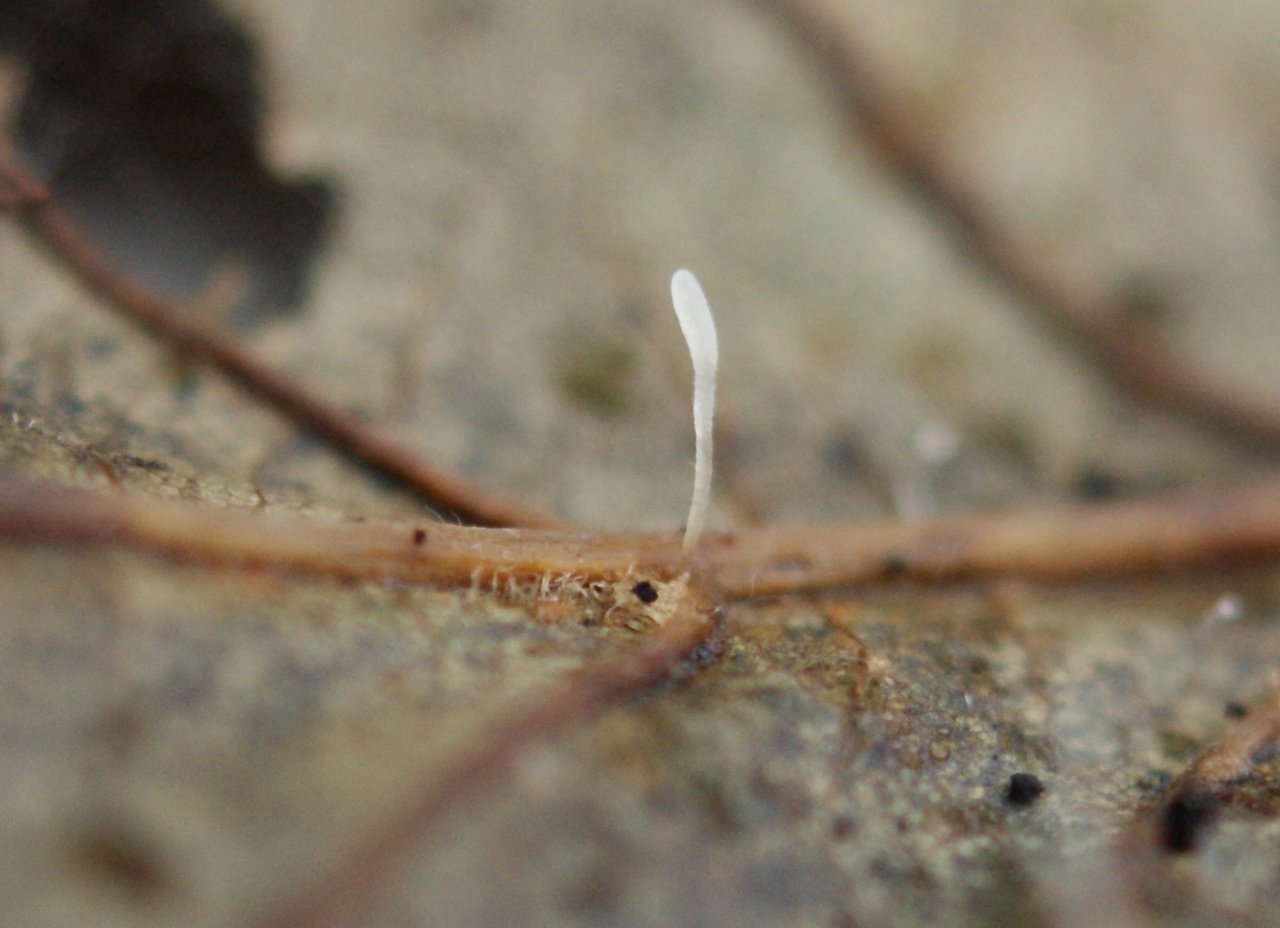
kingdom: Fungi
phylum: Basidiomycota
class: Agaricomycetes
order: Agaricales
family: Typhulaceae
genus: Typhula
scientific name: Typhula setipes
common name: liden trådkølle
